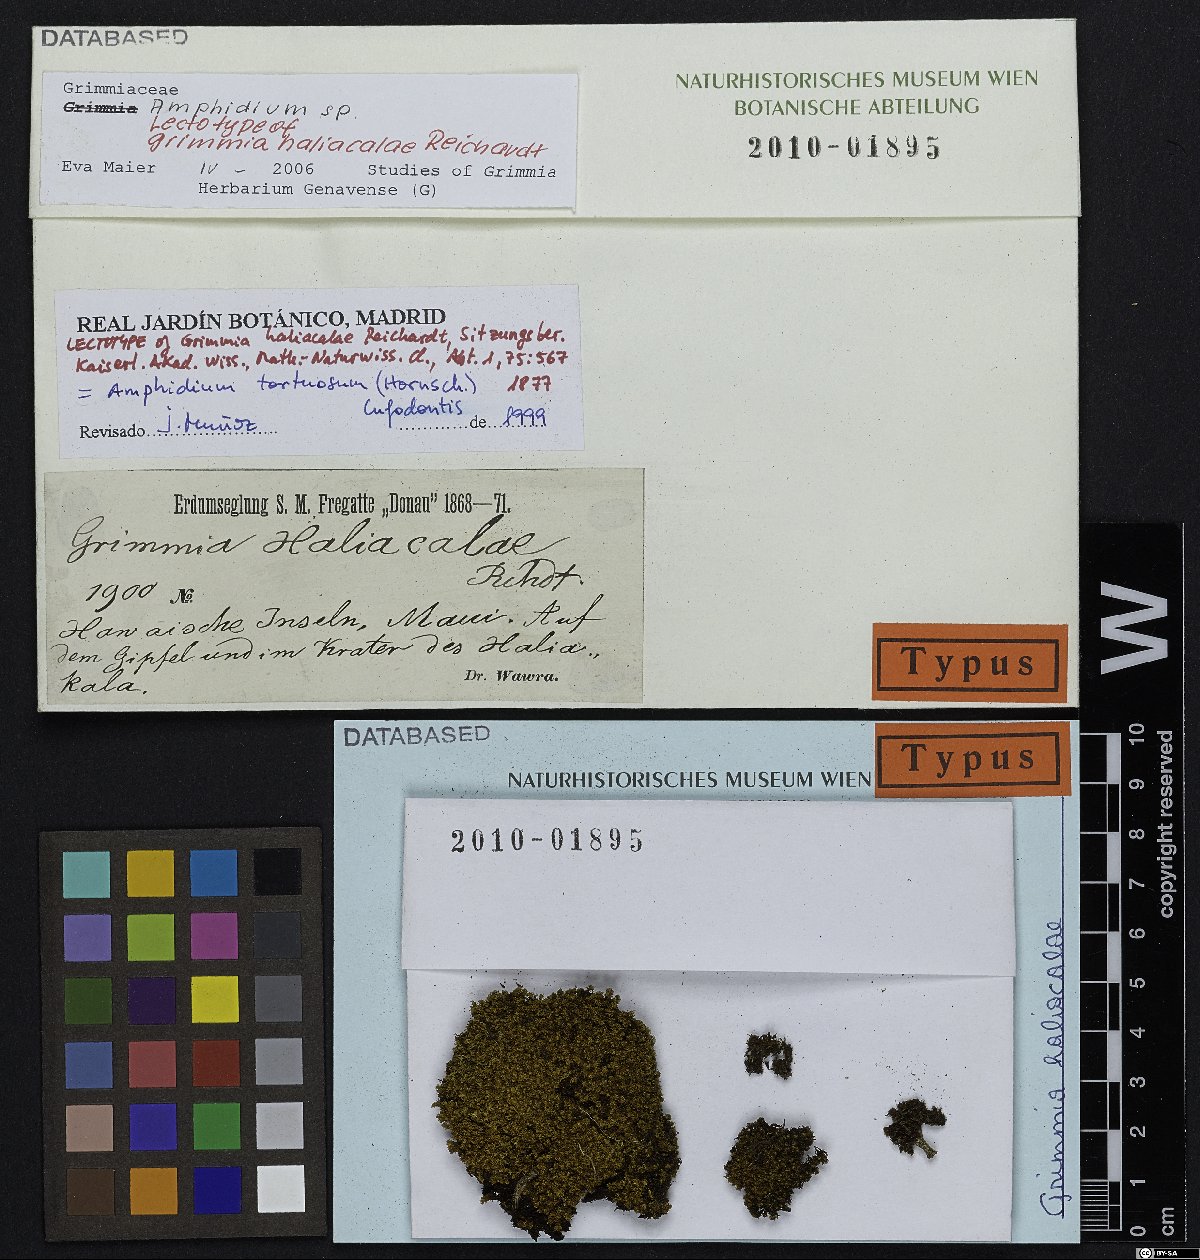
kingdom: Plantae
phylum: Bryophyta
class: Bryopsida
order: Dicranales
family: Amphidiaceae
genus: Amphidium
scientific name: Amphidium tortuosum
